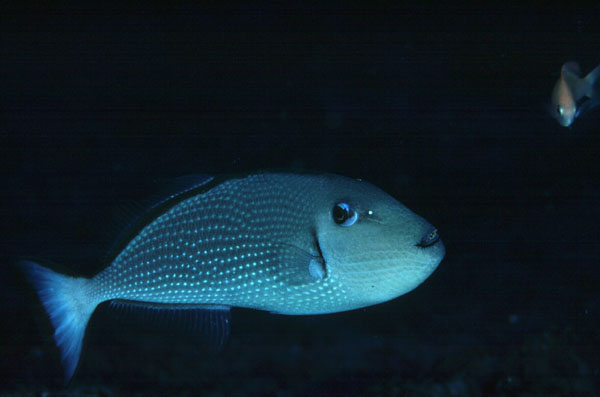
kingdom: Animalia
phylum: Chordata
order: Tetraodontiformes
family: Balistidae
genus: Xanthichthys
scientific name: Xanthichthys auromarginatus
